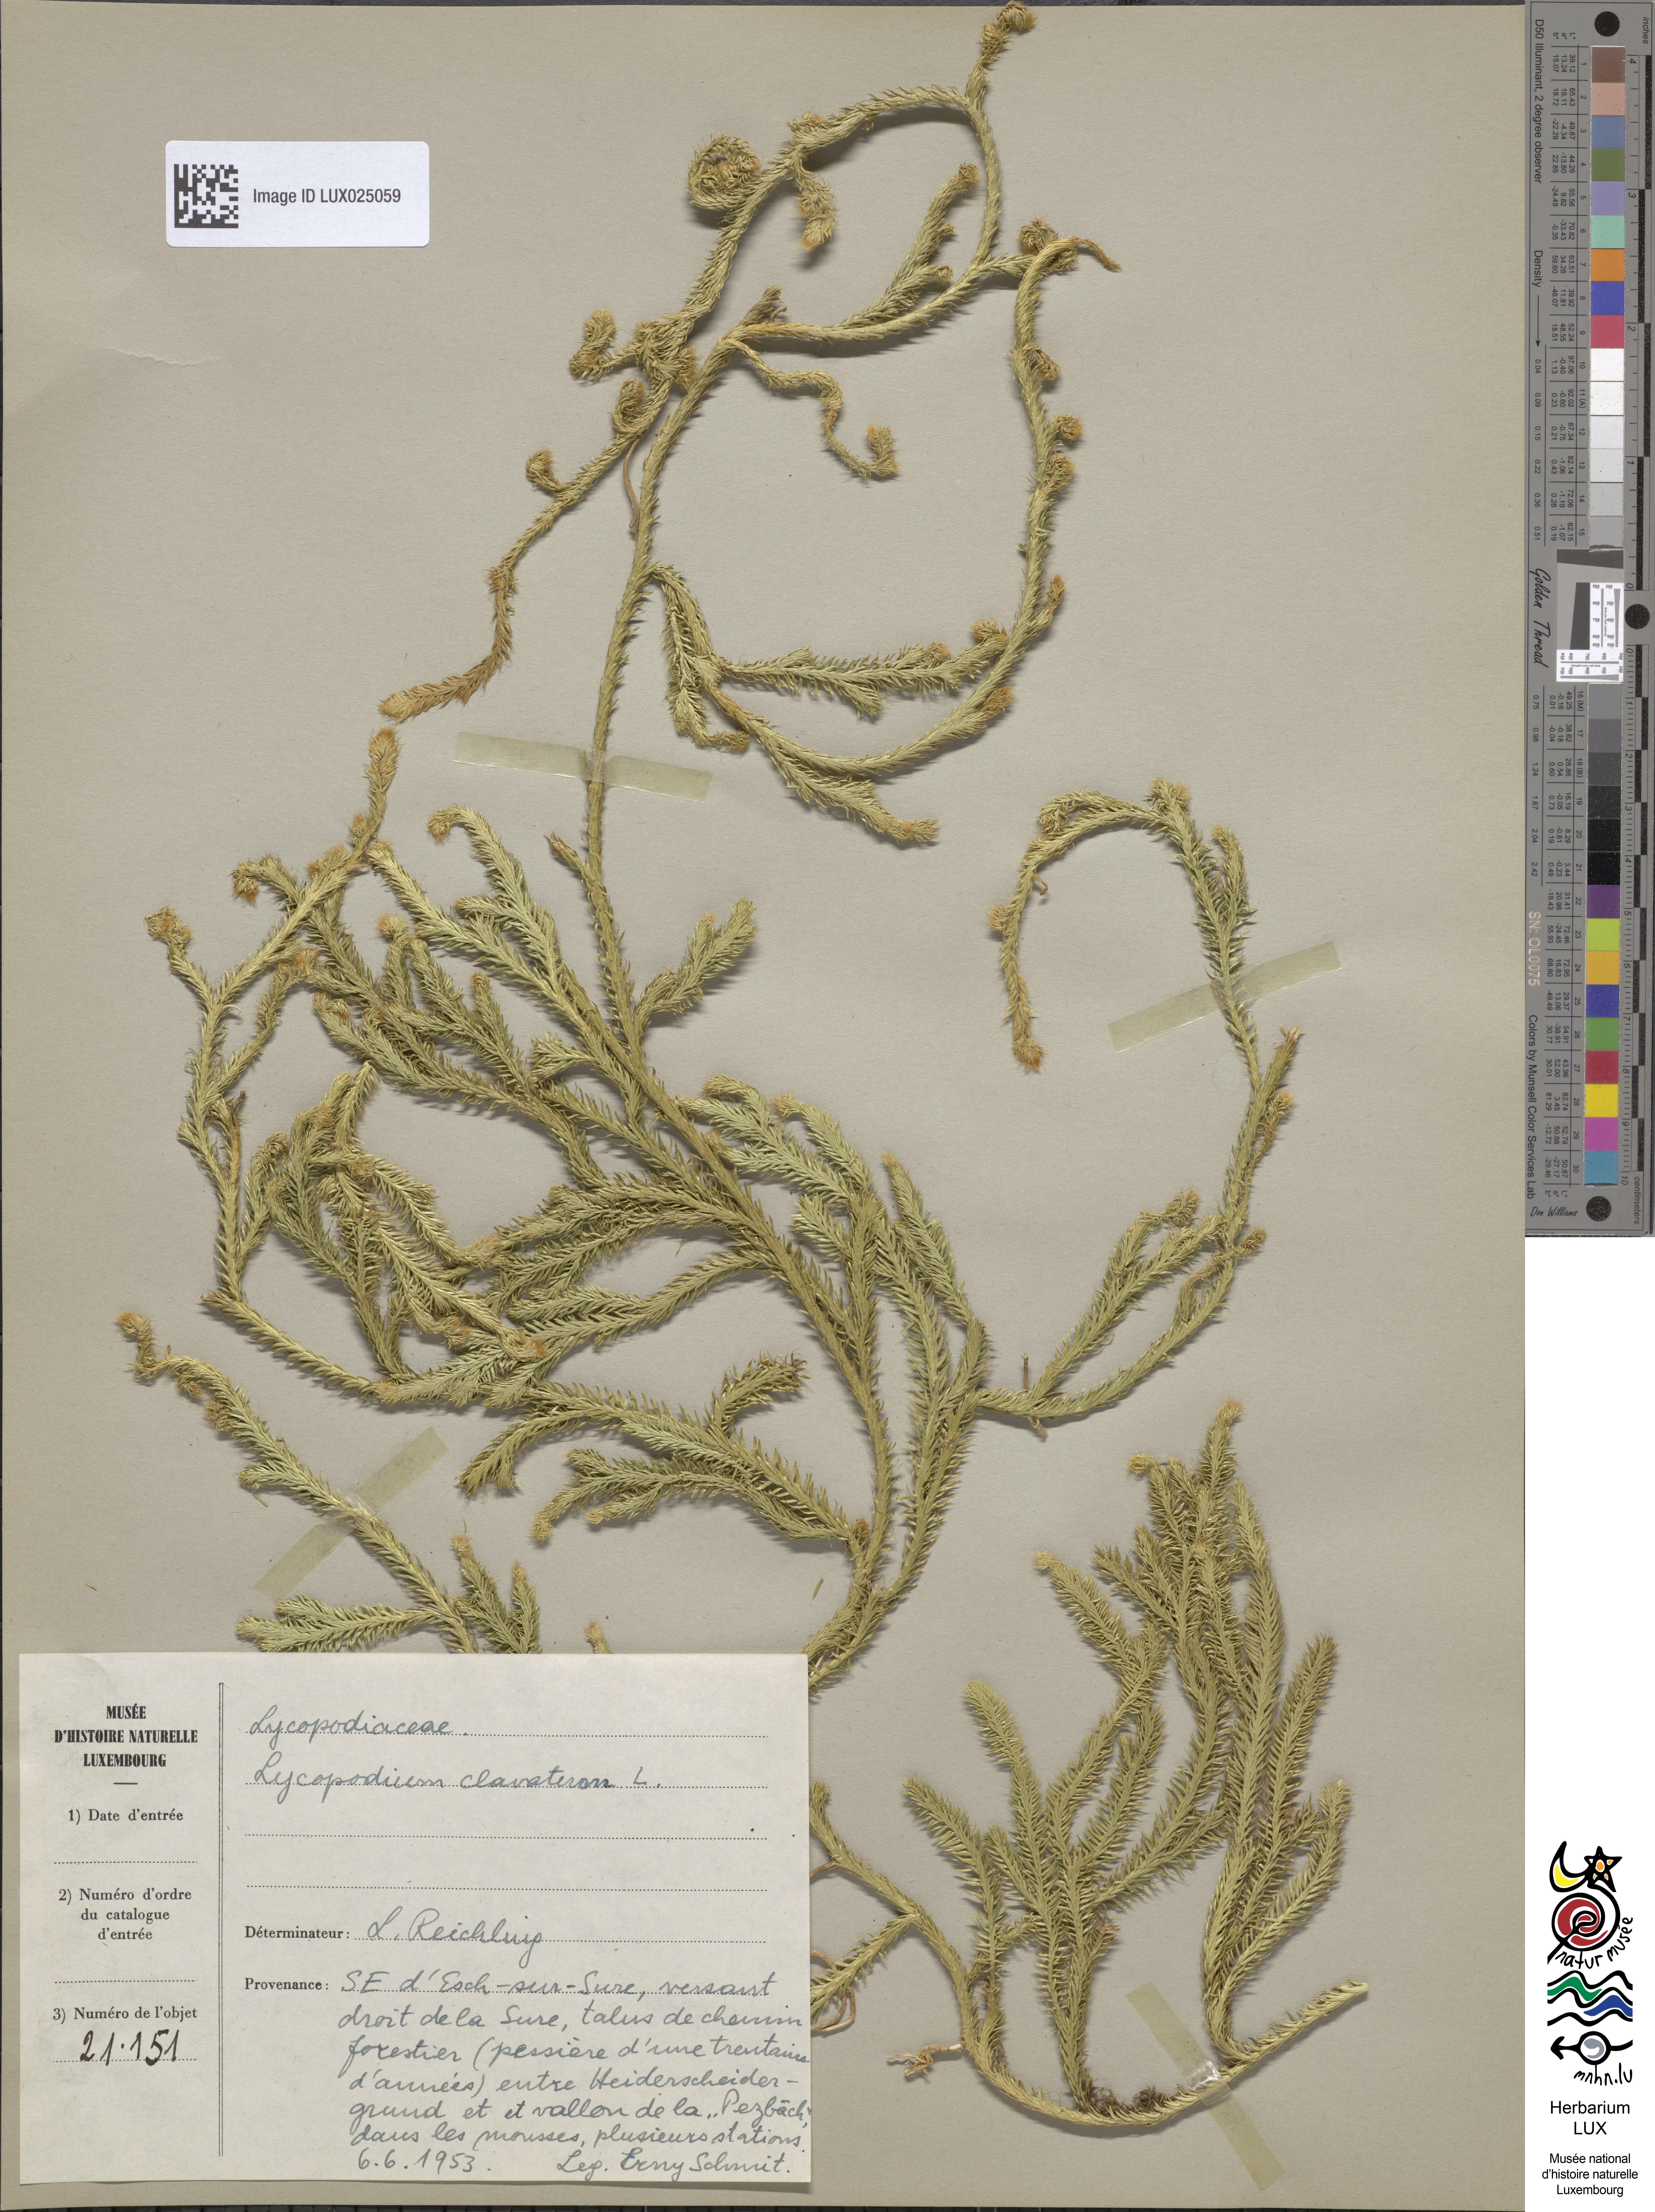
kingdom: Plantae
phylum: Tracheophyta
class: Lycopodiopsida
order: Lycopodiales
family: Lycopodiaceae
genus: Lycopodium
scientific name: Lycopodium clavatum
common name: Stag's-horn clubmoss
